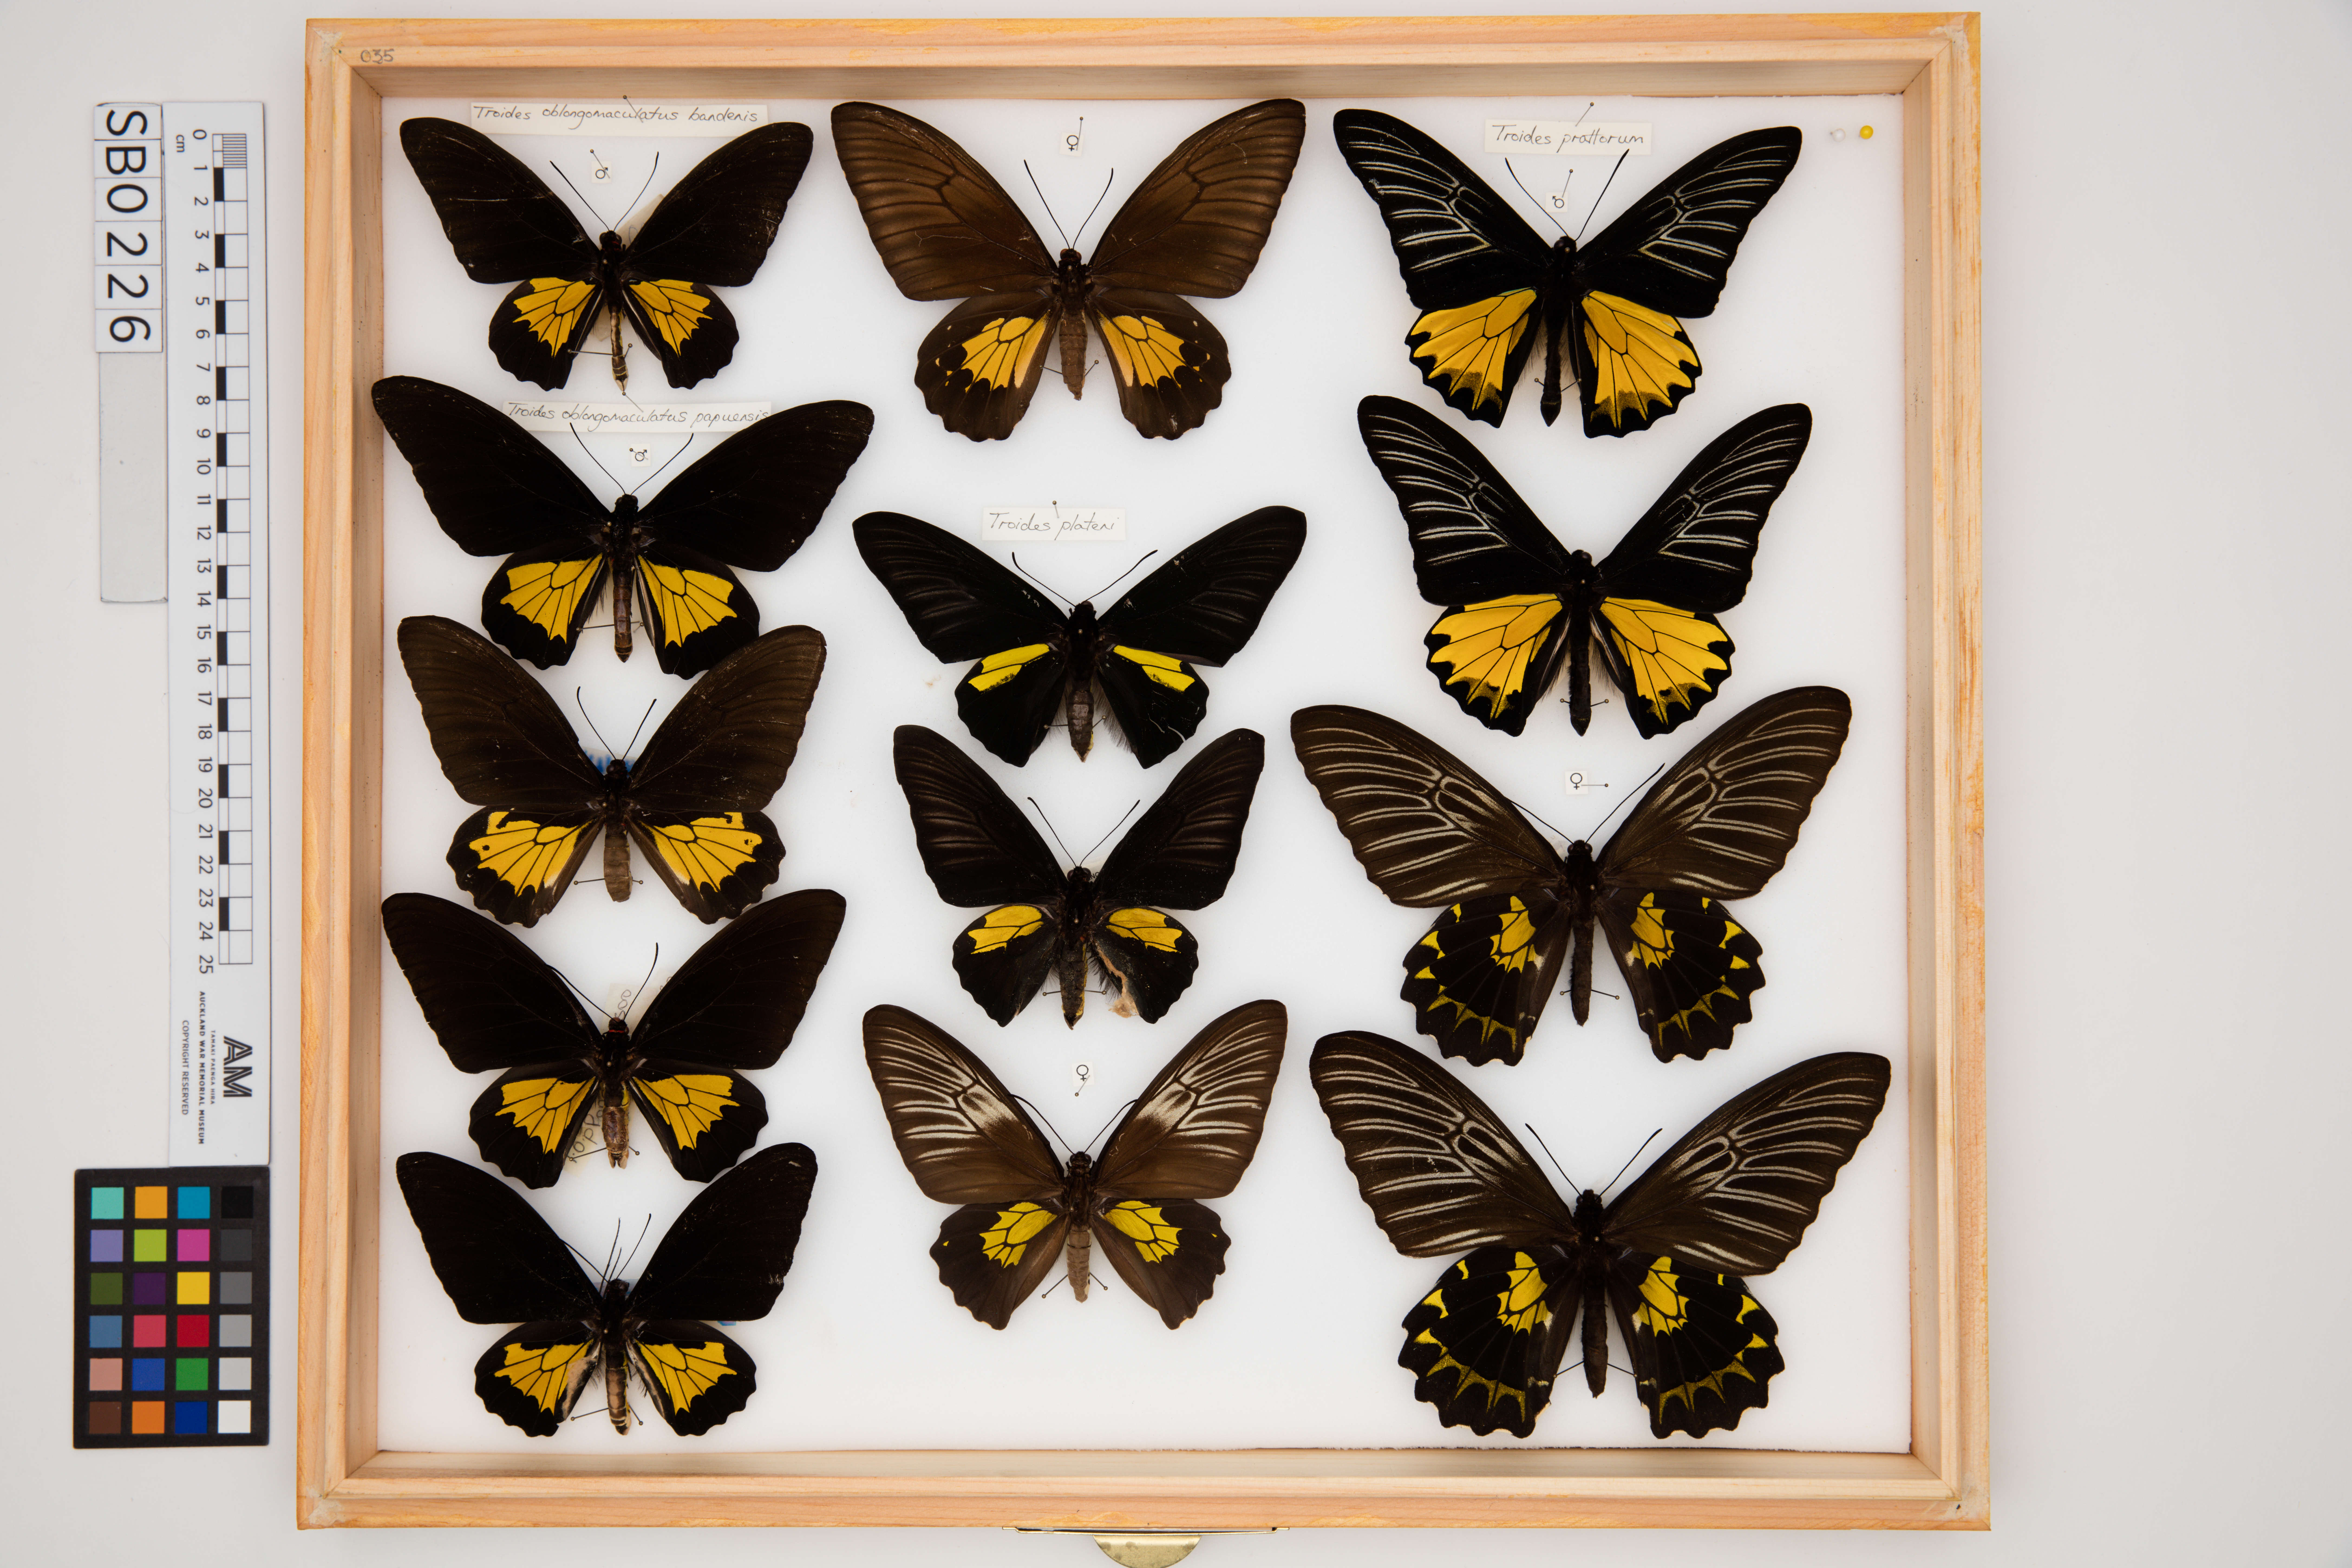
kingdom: Animalia
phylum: Arthropoda
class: Insecta
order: Lepidoptera
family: Papilionidae
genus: Troides
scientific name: Troides plateni
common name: Dr. platen's birdwing
